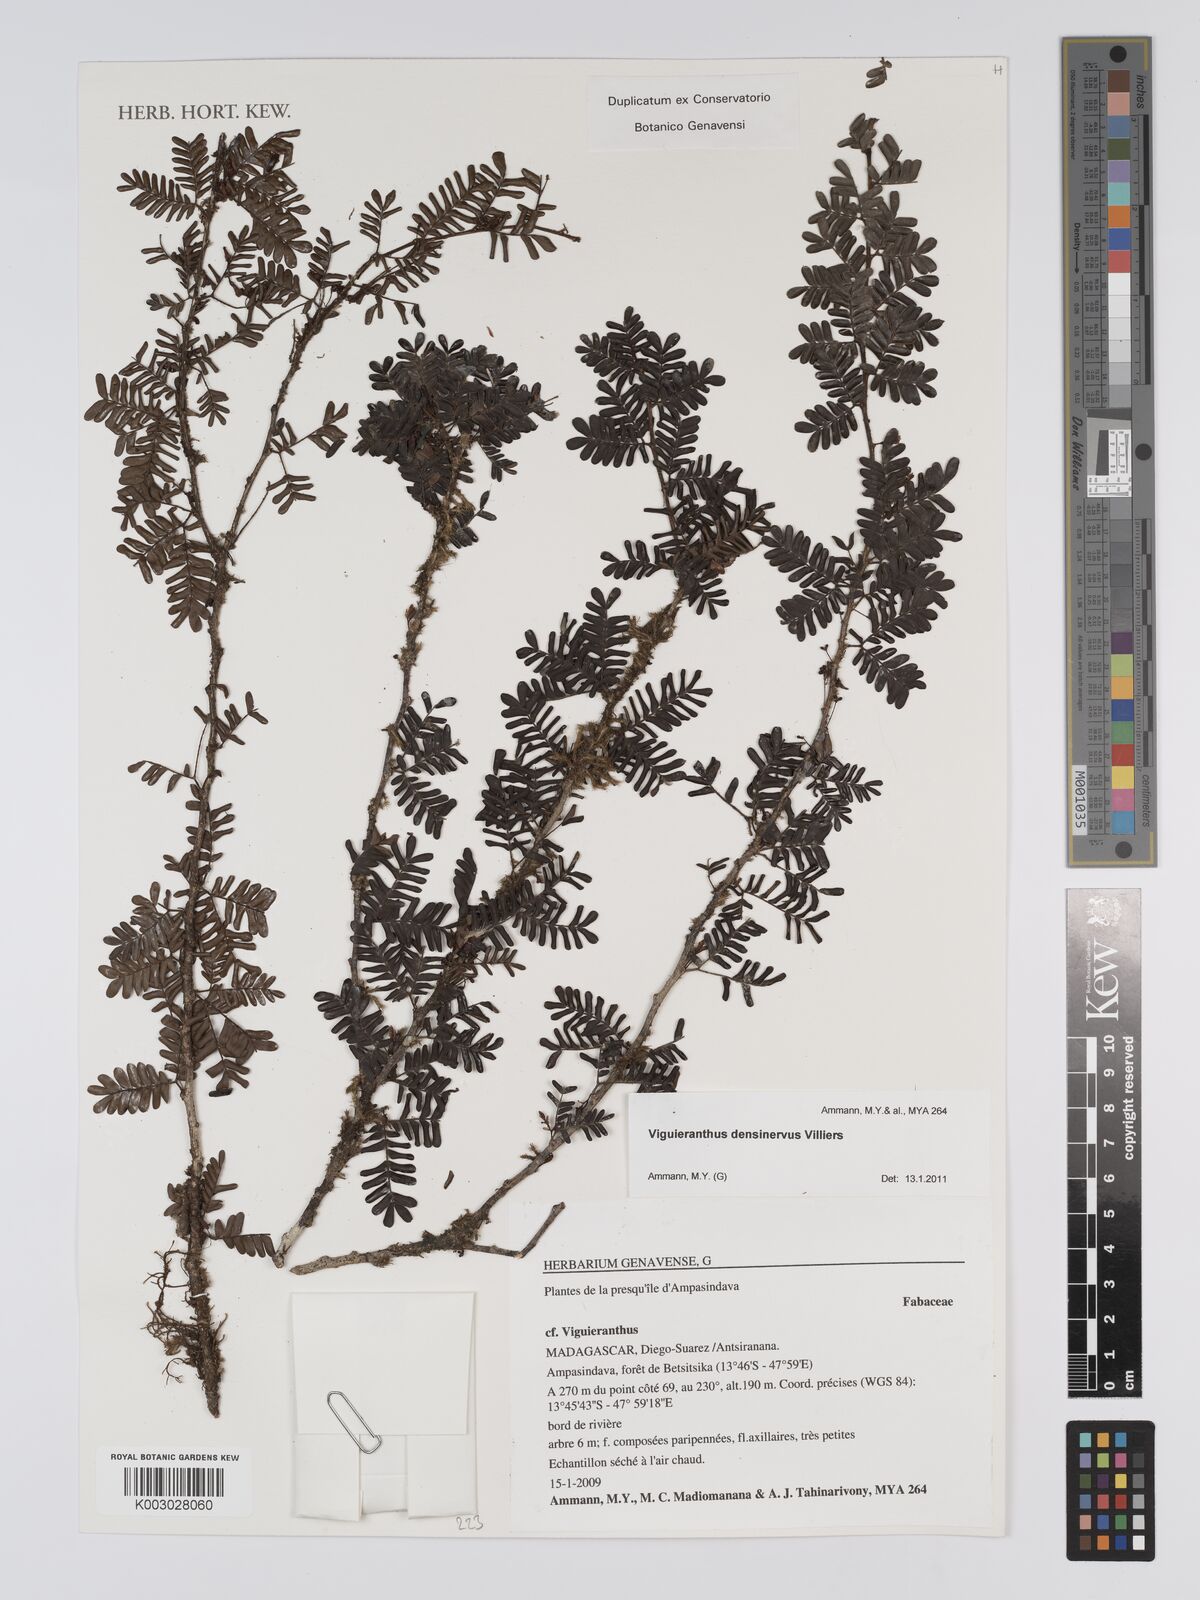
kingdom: Plantae
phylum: Tracheophyta
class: Magnoliopsida
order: Fabales
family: Fabaceae
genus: Viguieranthus
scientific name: Viguieranthus densinervus
